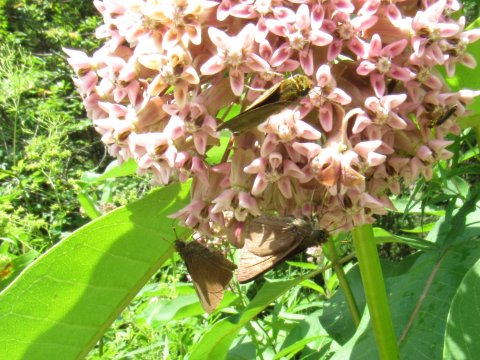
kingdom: Animalia
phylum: Arthropoda
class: Insecta
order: Lepidoptera
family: Hesperiidae
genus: Euphyes
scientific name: Euphyes vestris
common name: Dun Skipper
